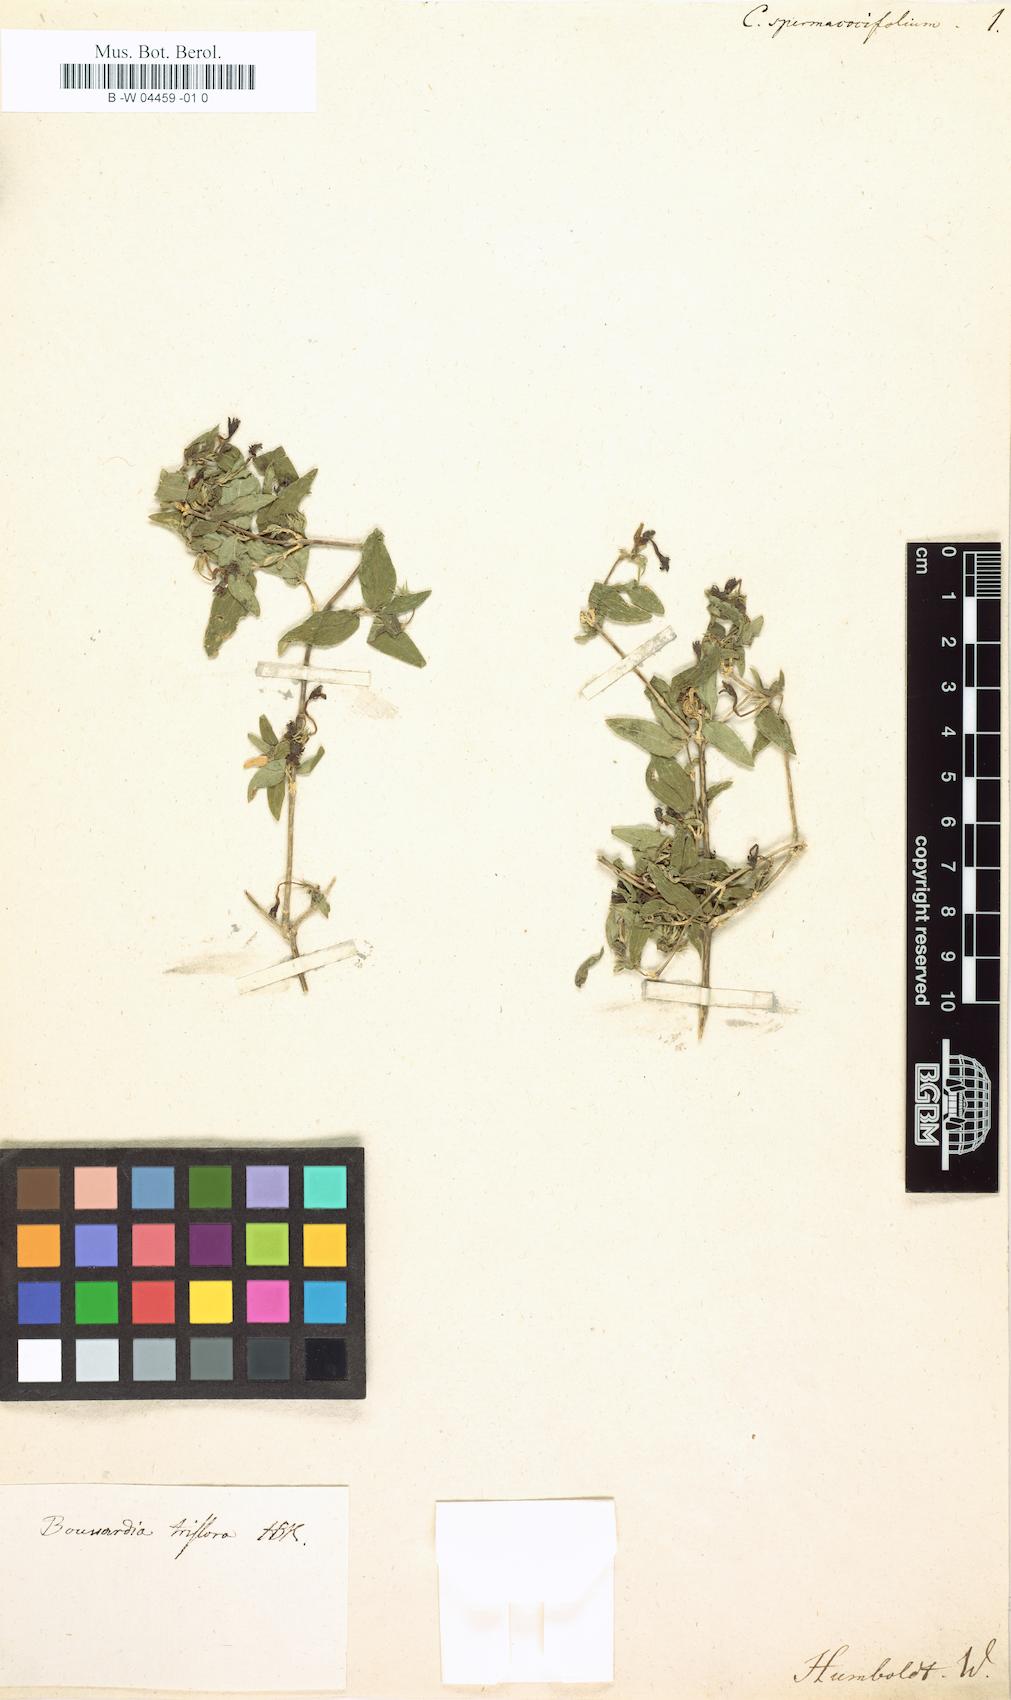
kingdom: Plantae
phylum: Tracheophyta
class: Magnoliopsida
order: Gentianales
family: Rubiaceae
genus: Bouvardia
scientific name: Bouvardia multiflora
